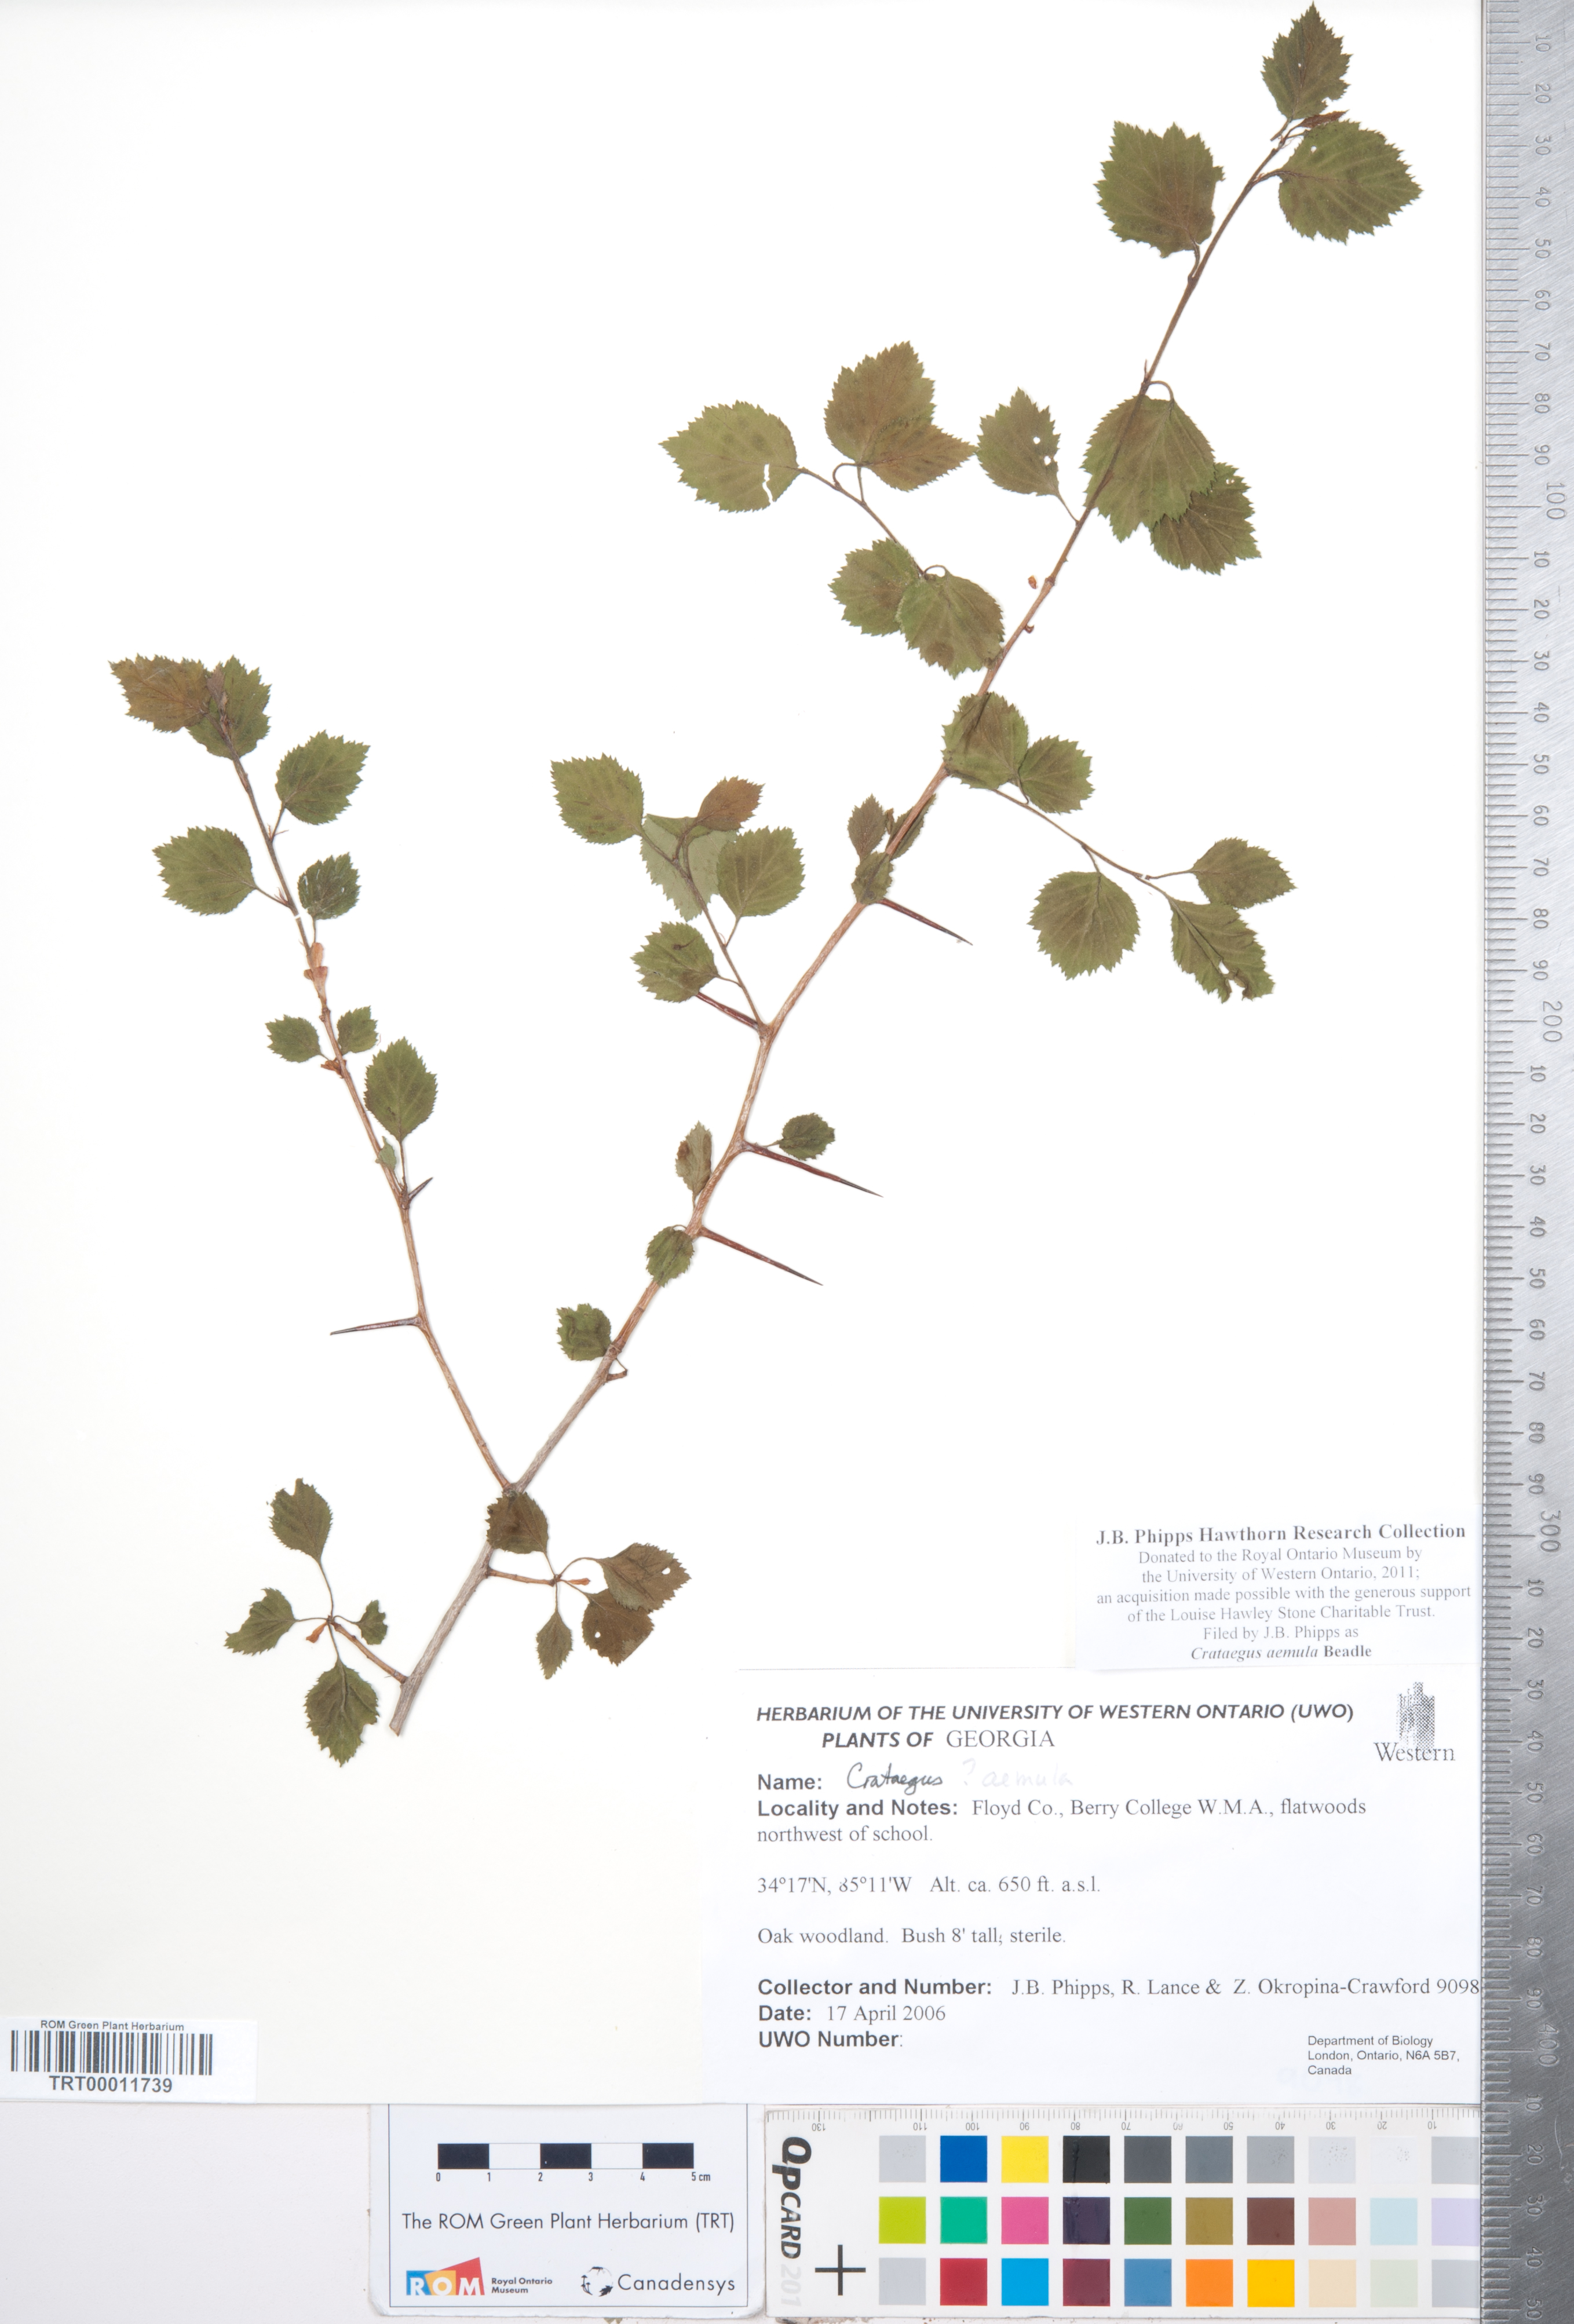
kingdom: Plantae
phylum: Tracheophyta
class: Magnoliopsida
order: Rosales
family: Rosaceae
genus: Crataegus
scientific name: Crataegus iracunda
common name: Stolon-bearing hawthorn
